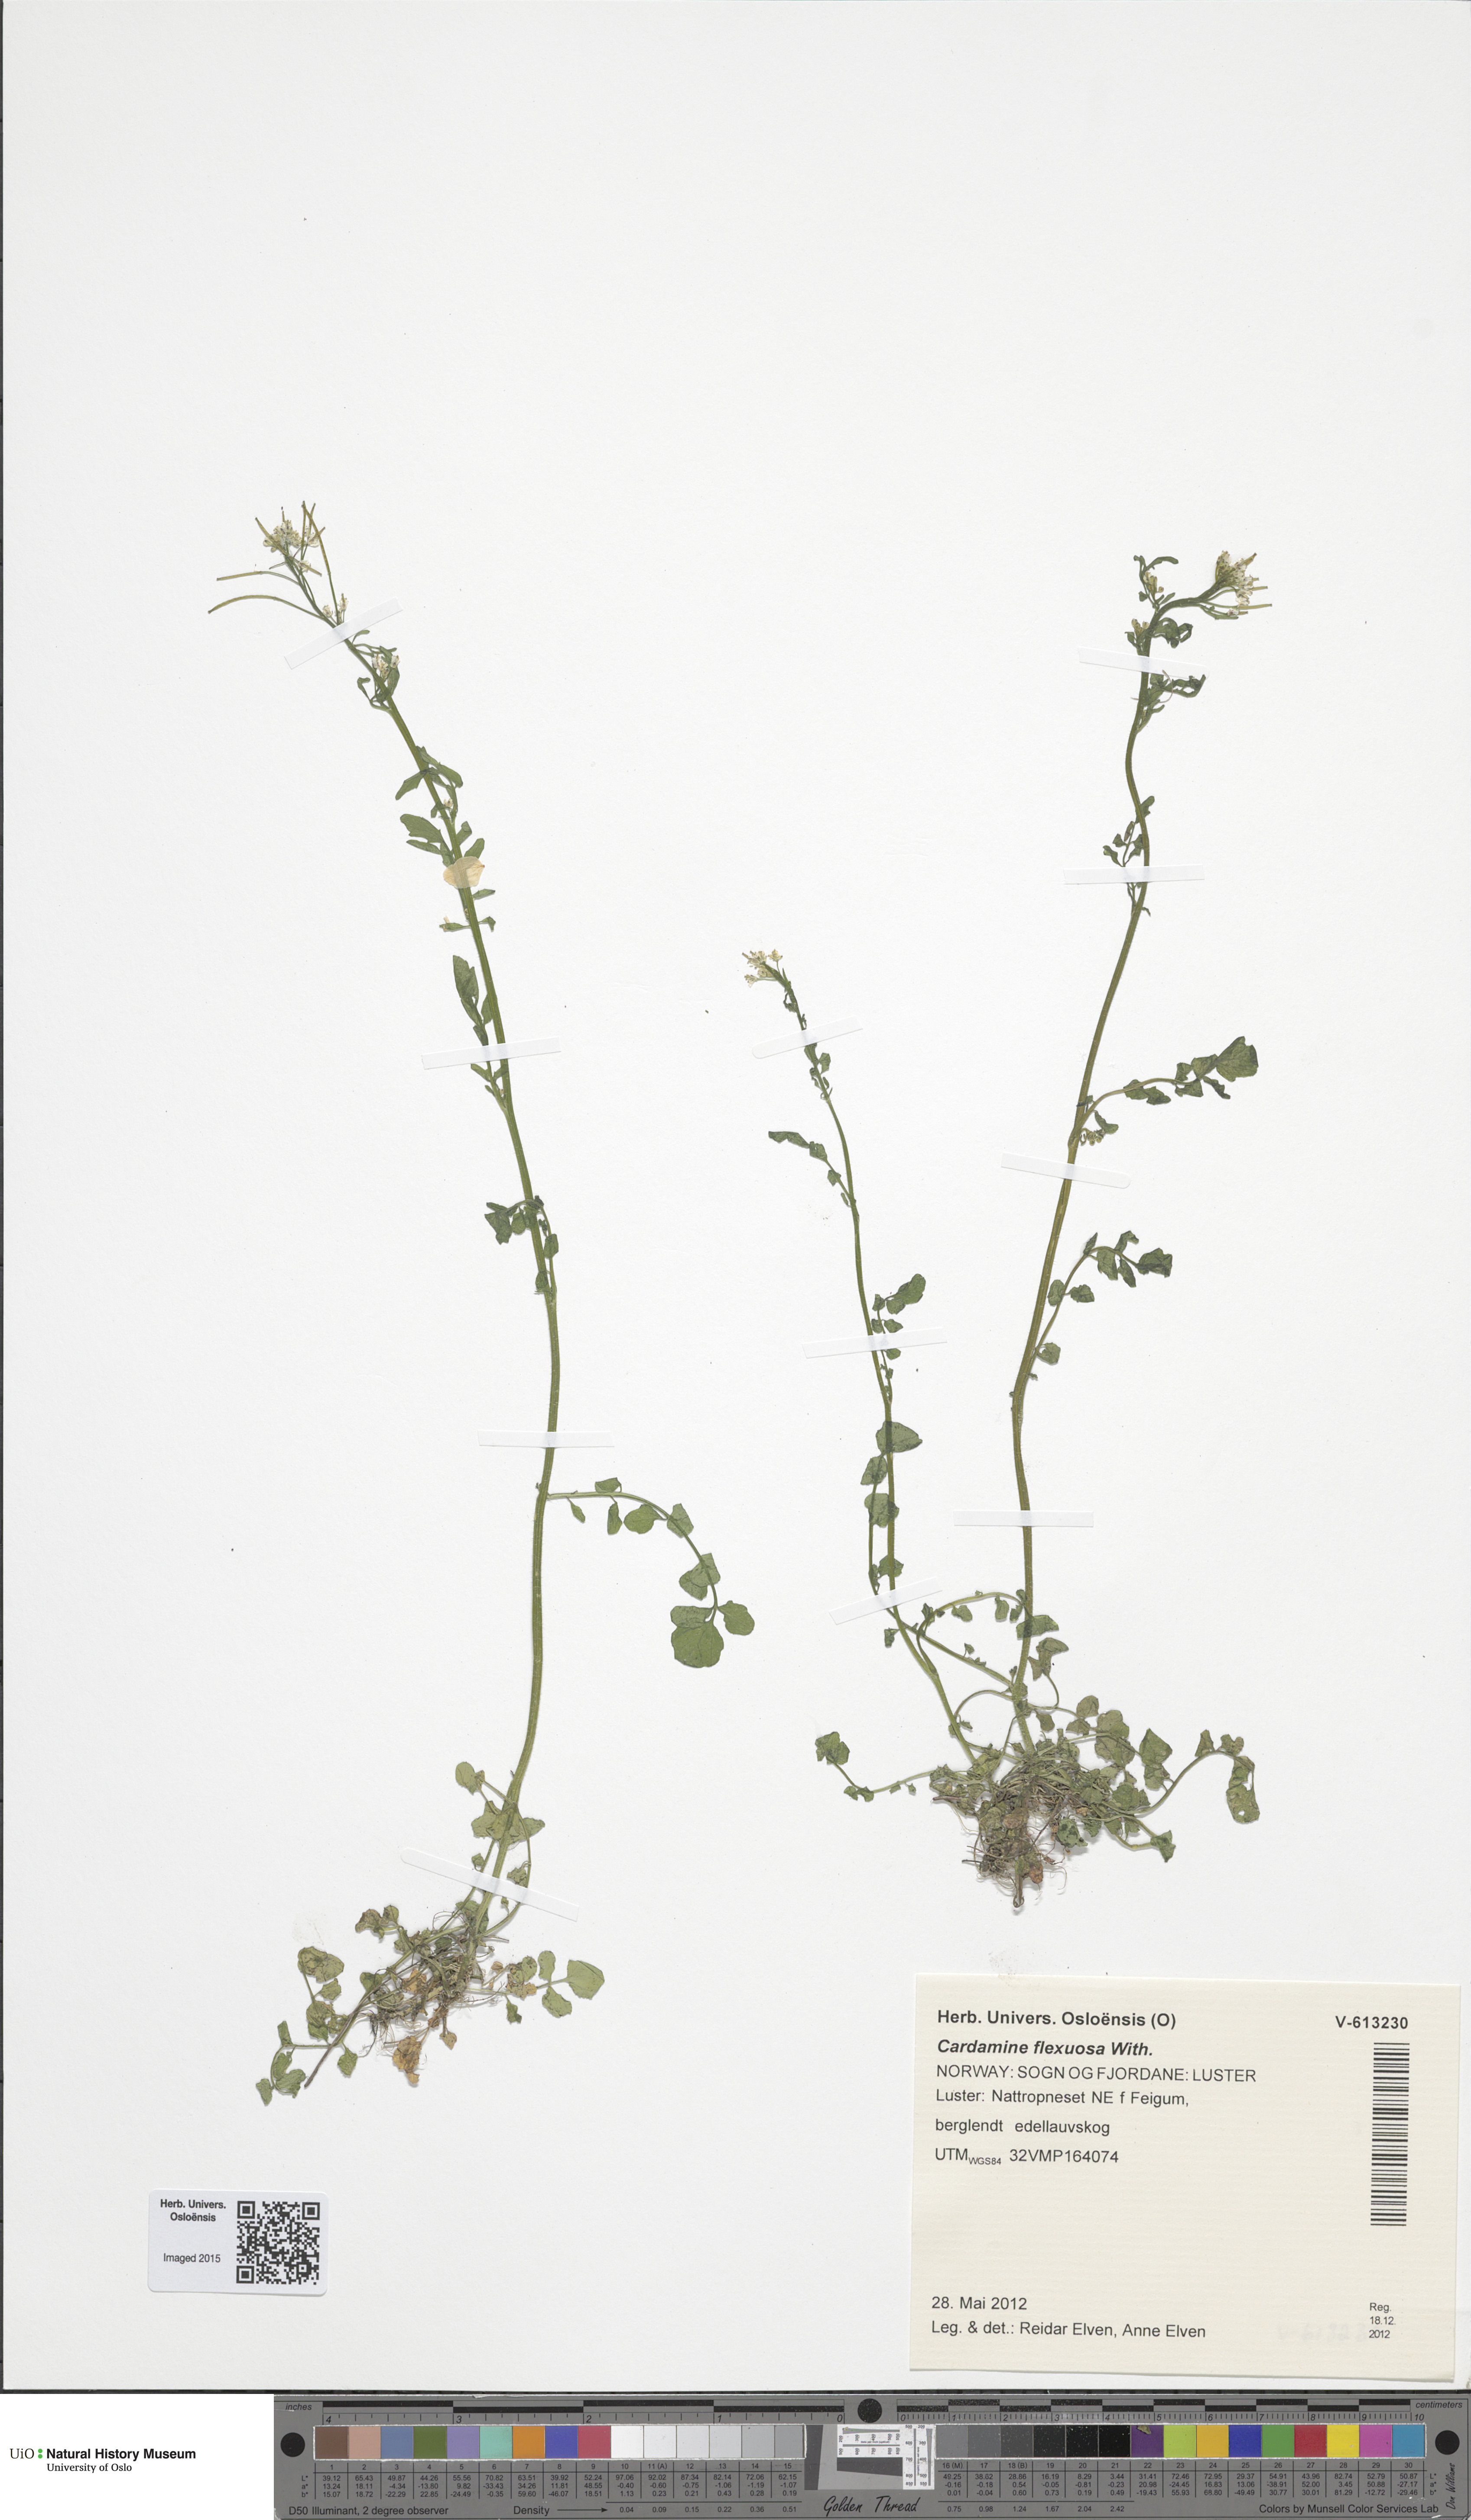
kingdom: Plantae
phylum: Tracheophyta
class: Magnoliopsida
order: Brassicales
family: Brassicaceae
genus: Cardamine
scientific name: Cardamine flexuosa
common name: Woodland bittercress
